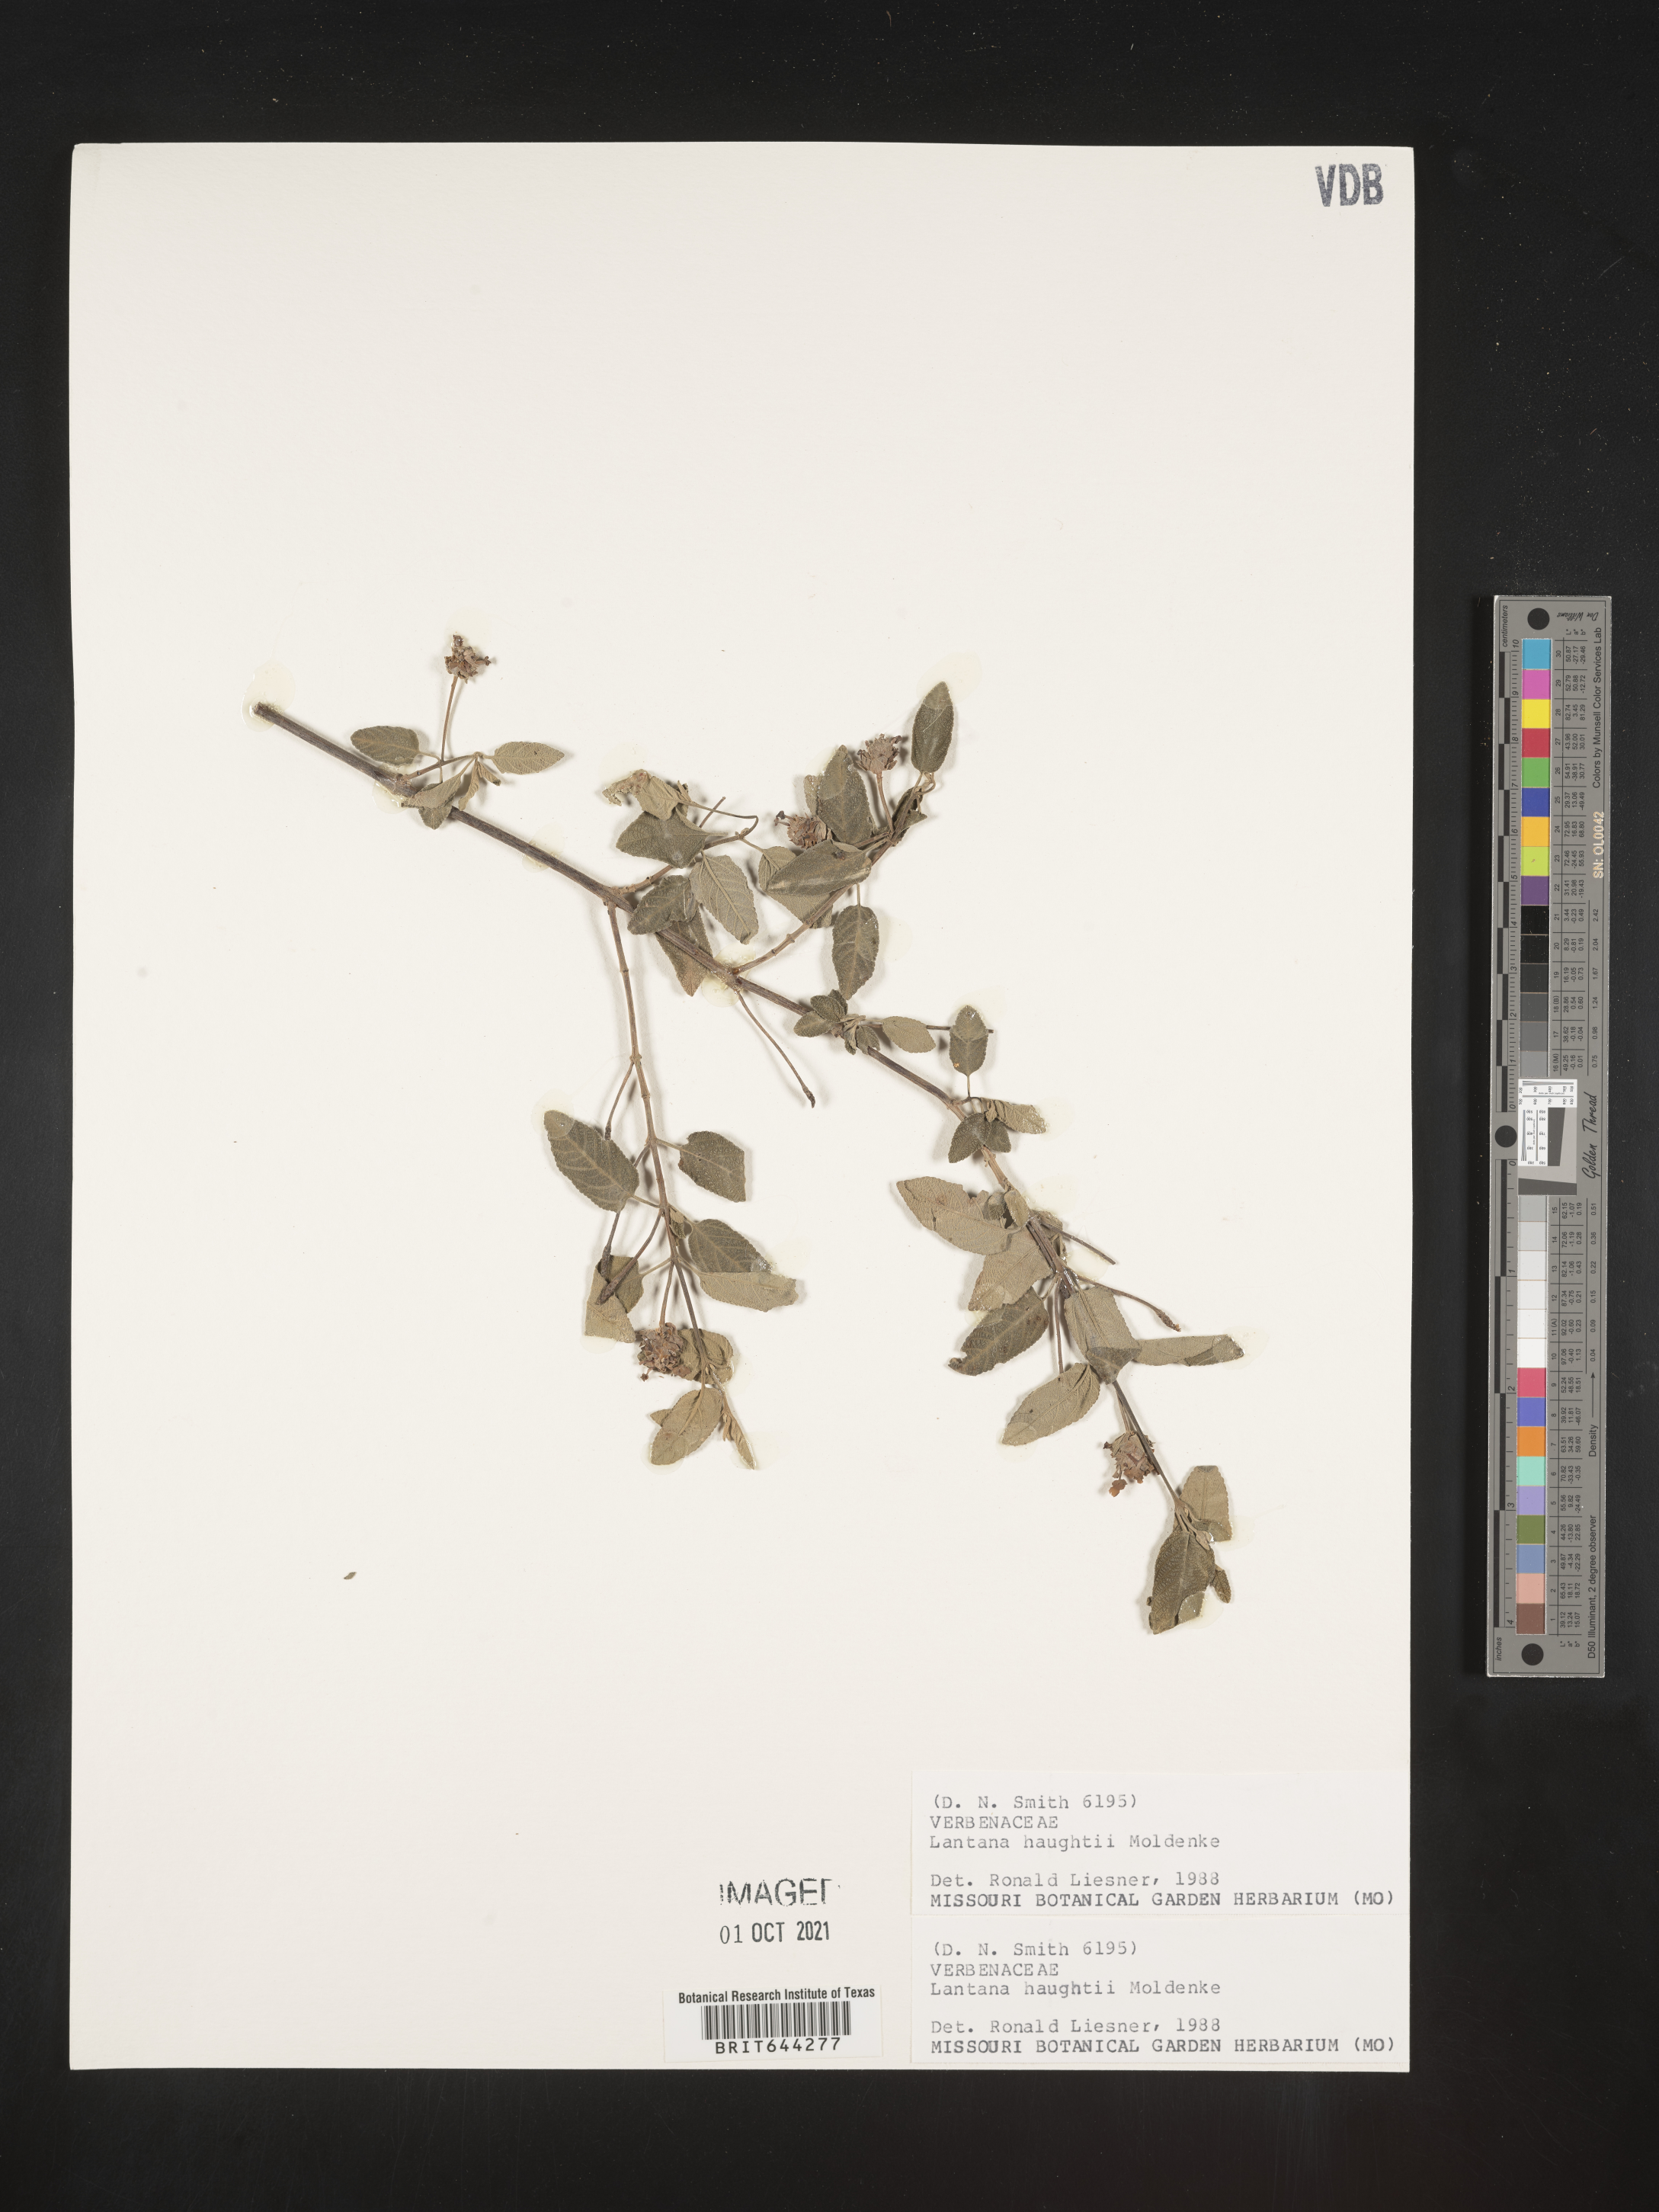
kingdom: Plantae
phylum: Tracheophyta
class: Magnoliopsida
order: Lamiales
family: Verbenaceae
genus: Lantana
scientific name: Lantana
